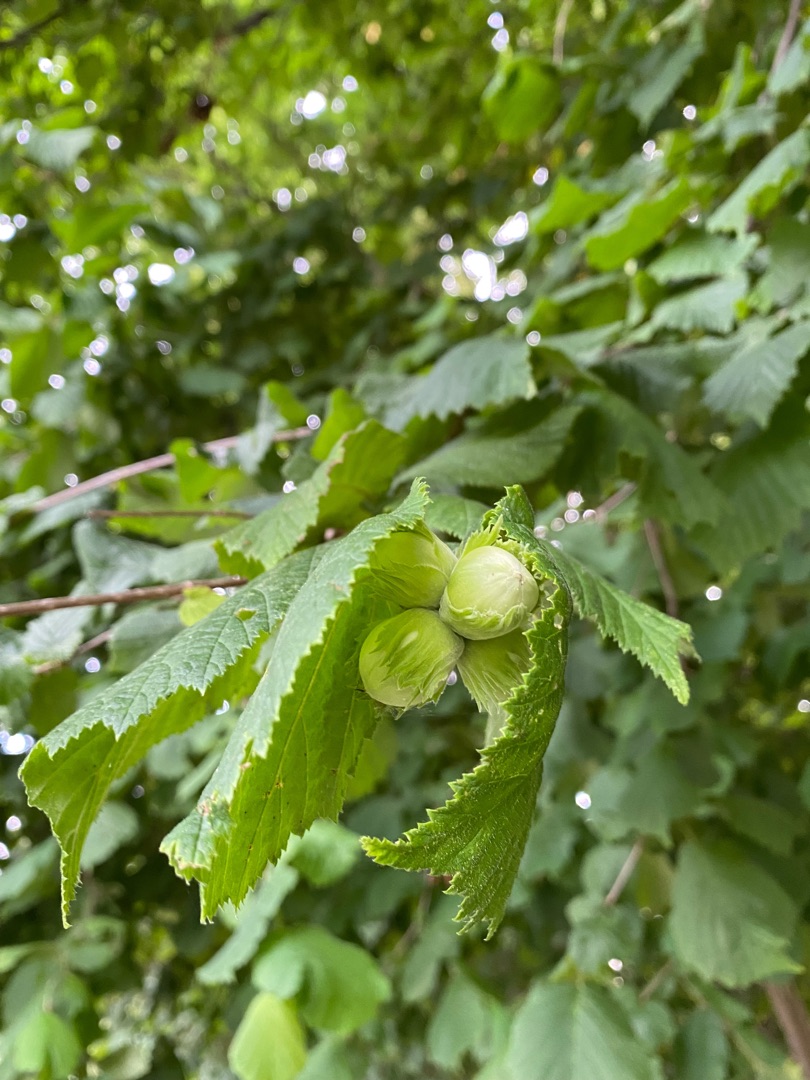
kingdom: Plantae
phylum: Tracheophyta
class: Magnoliopsida
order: Fagales
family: Betulaceae
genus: Corylus
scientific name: Corylus avellana
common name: Hassel
